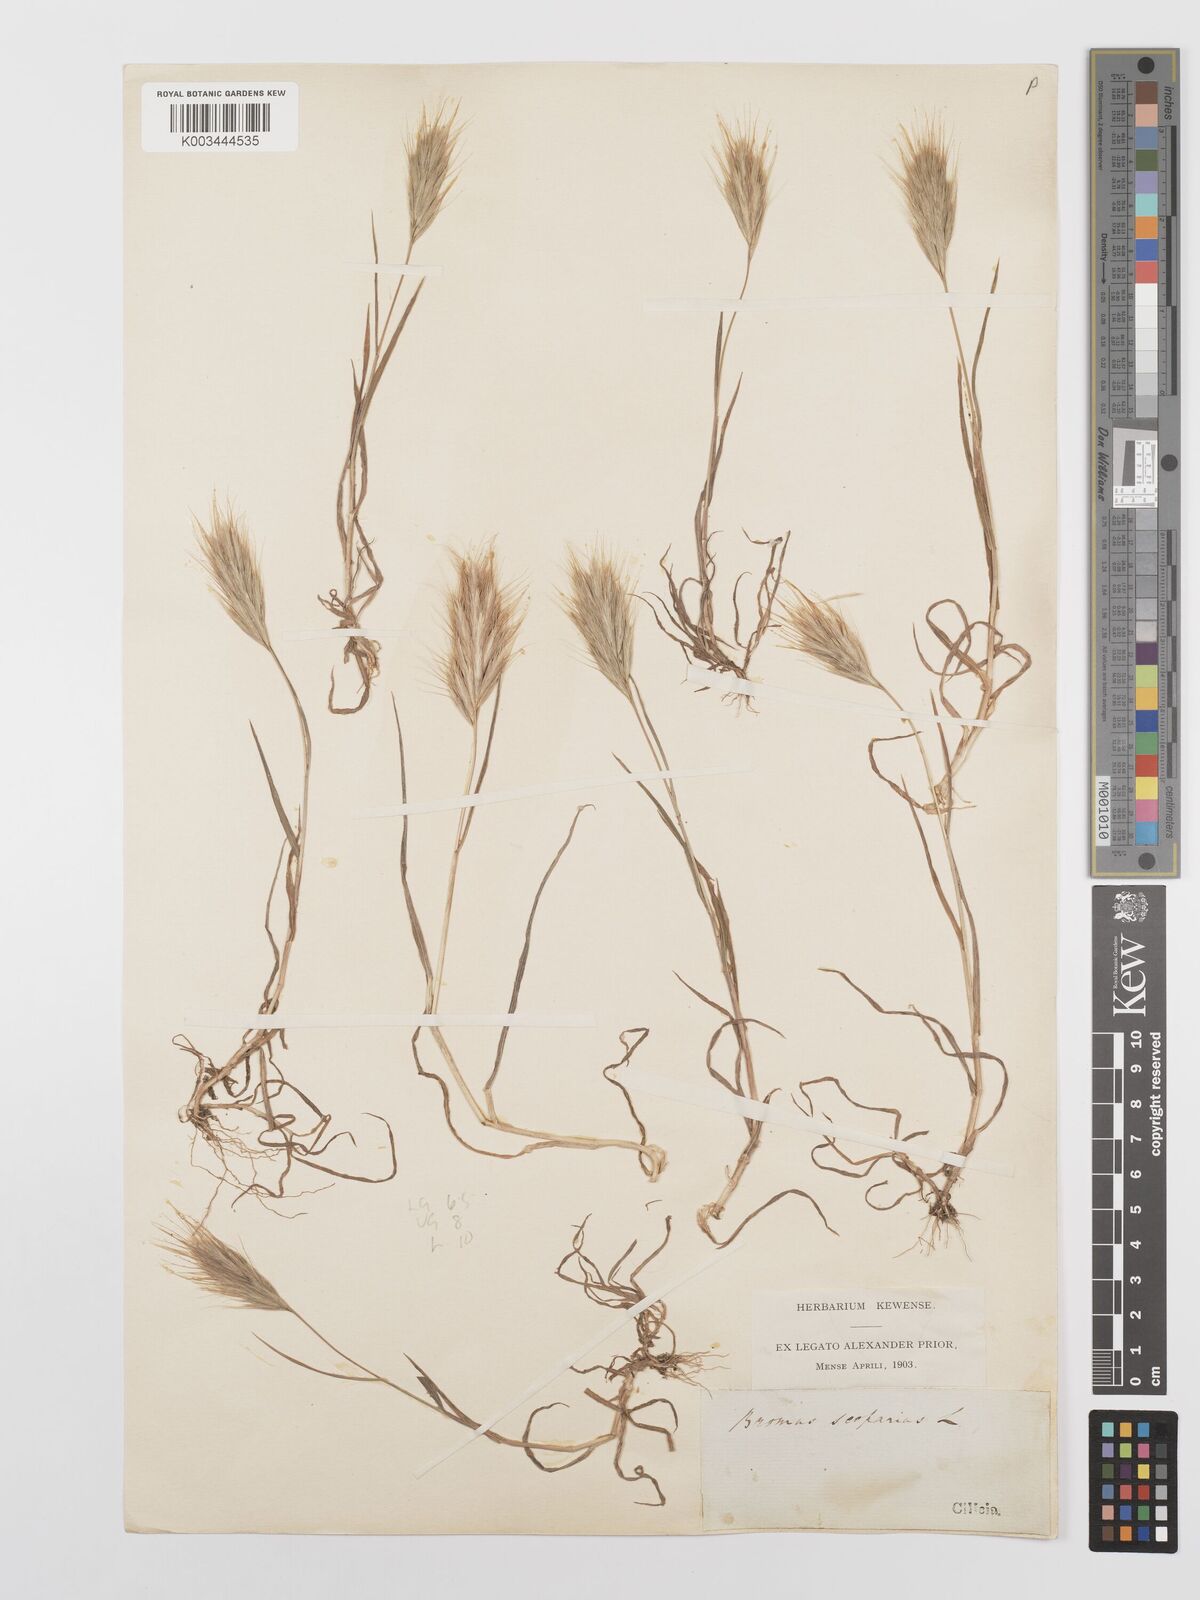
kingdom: Plantae
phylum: Tracheophyta
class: Liliopsida
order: Poales
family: Poaceae
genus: Bromus
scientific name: Bromus scoparius
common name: Broom brome
